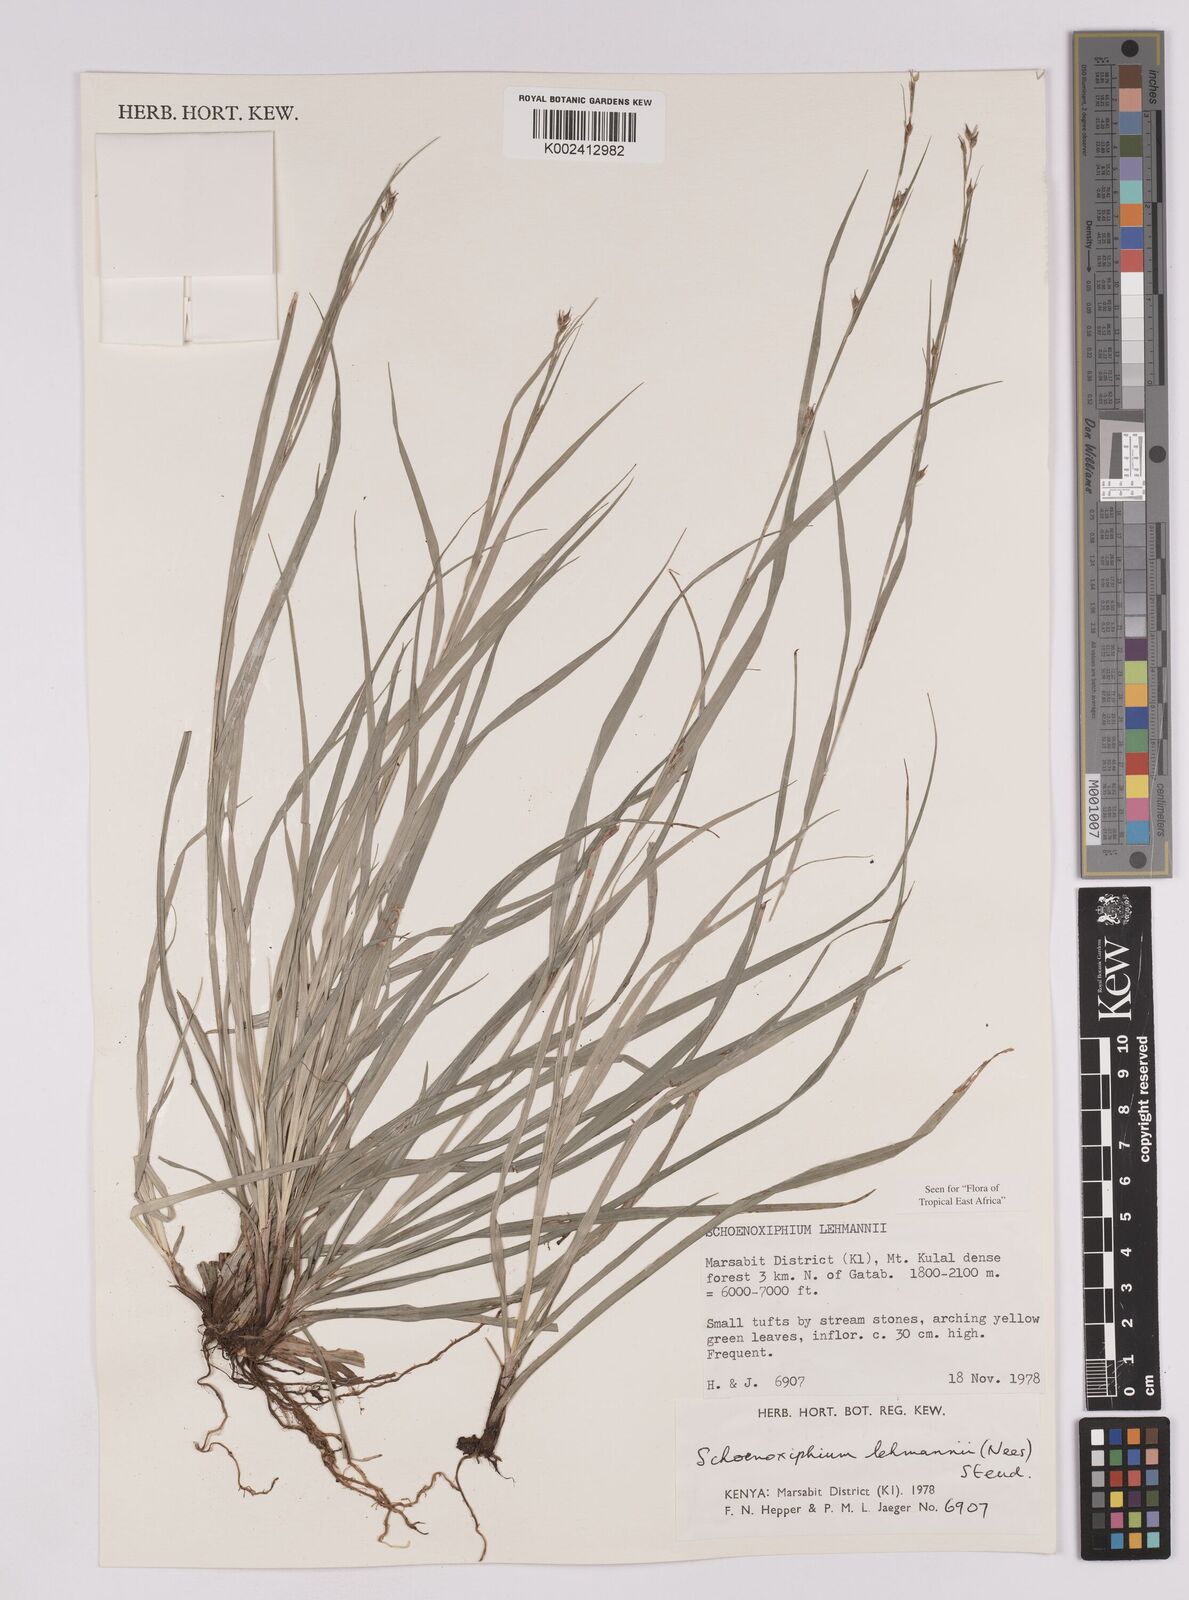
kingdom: Plantae
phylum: Tracheophyta
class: Liliopsida
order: Poales
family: Cyperaceae
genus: Carex
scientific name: Carex uhligii
